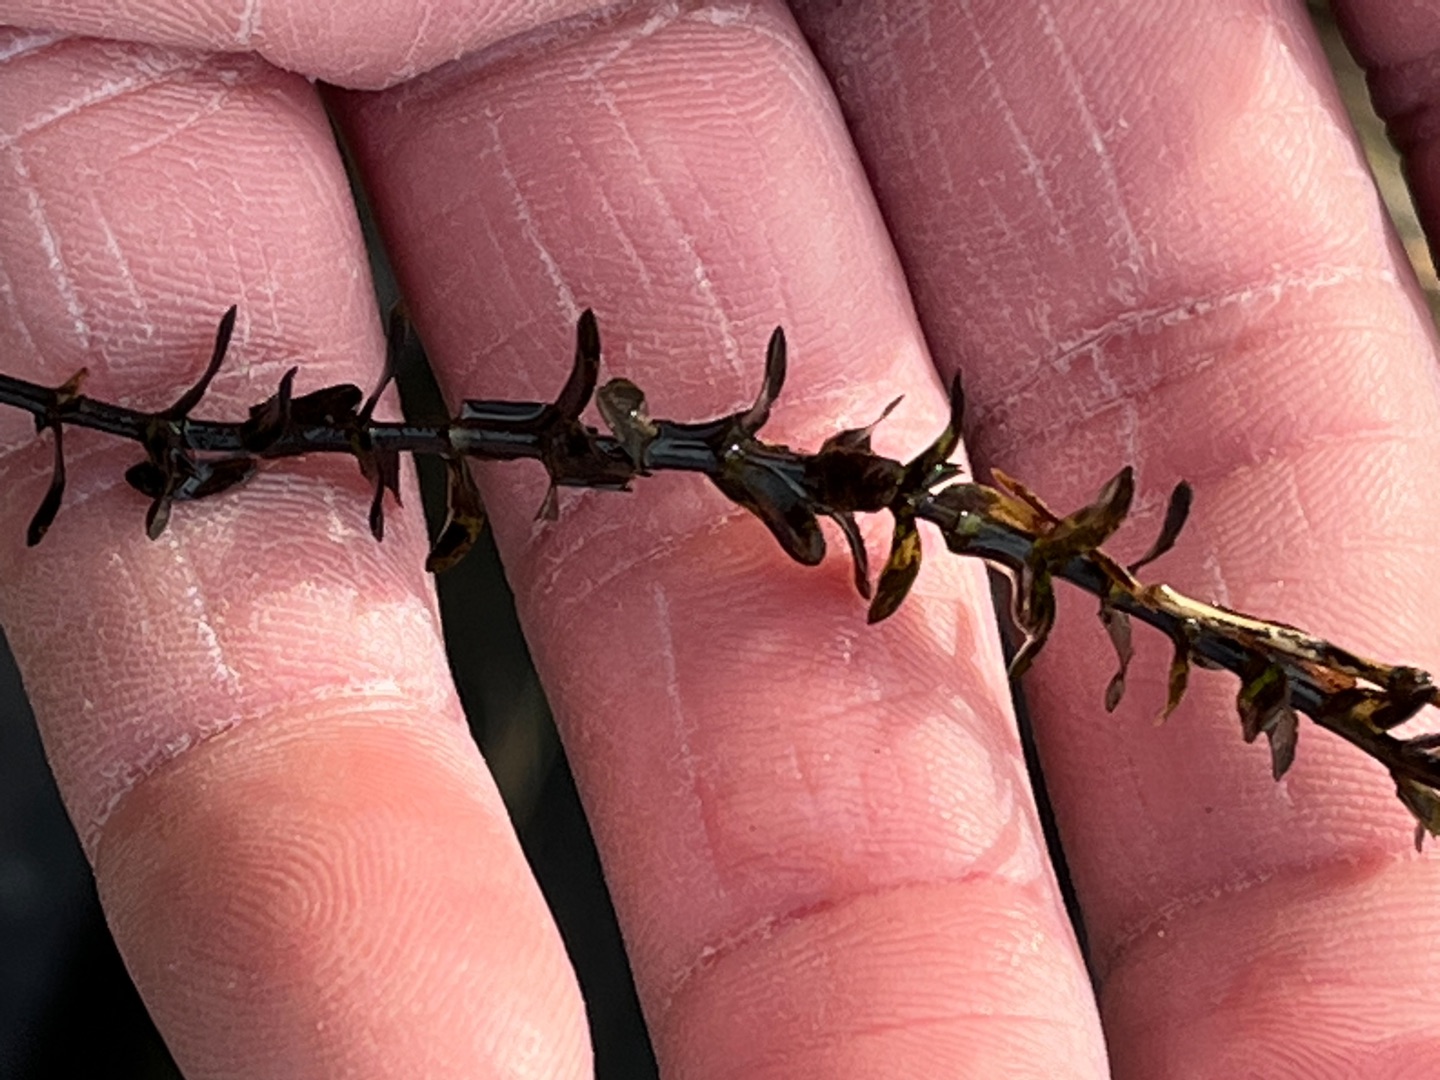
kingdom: Plantae
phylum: Tracheophyta
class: Liliopsida
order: Alismatales
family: Hydrocharitaceae
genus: Elodea
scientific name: Elodea canadensis
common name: Vandpest
